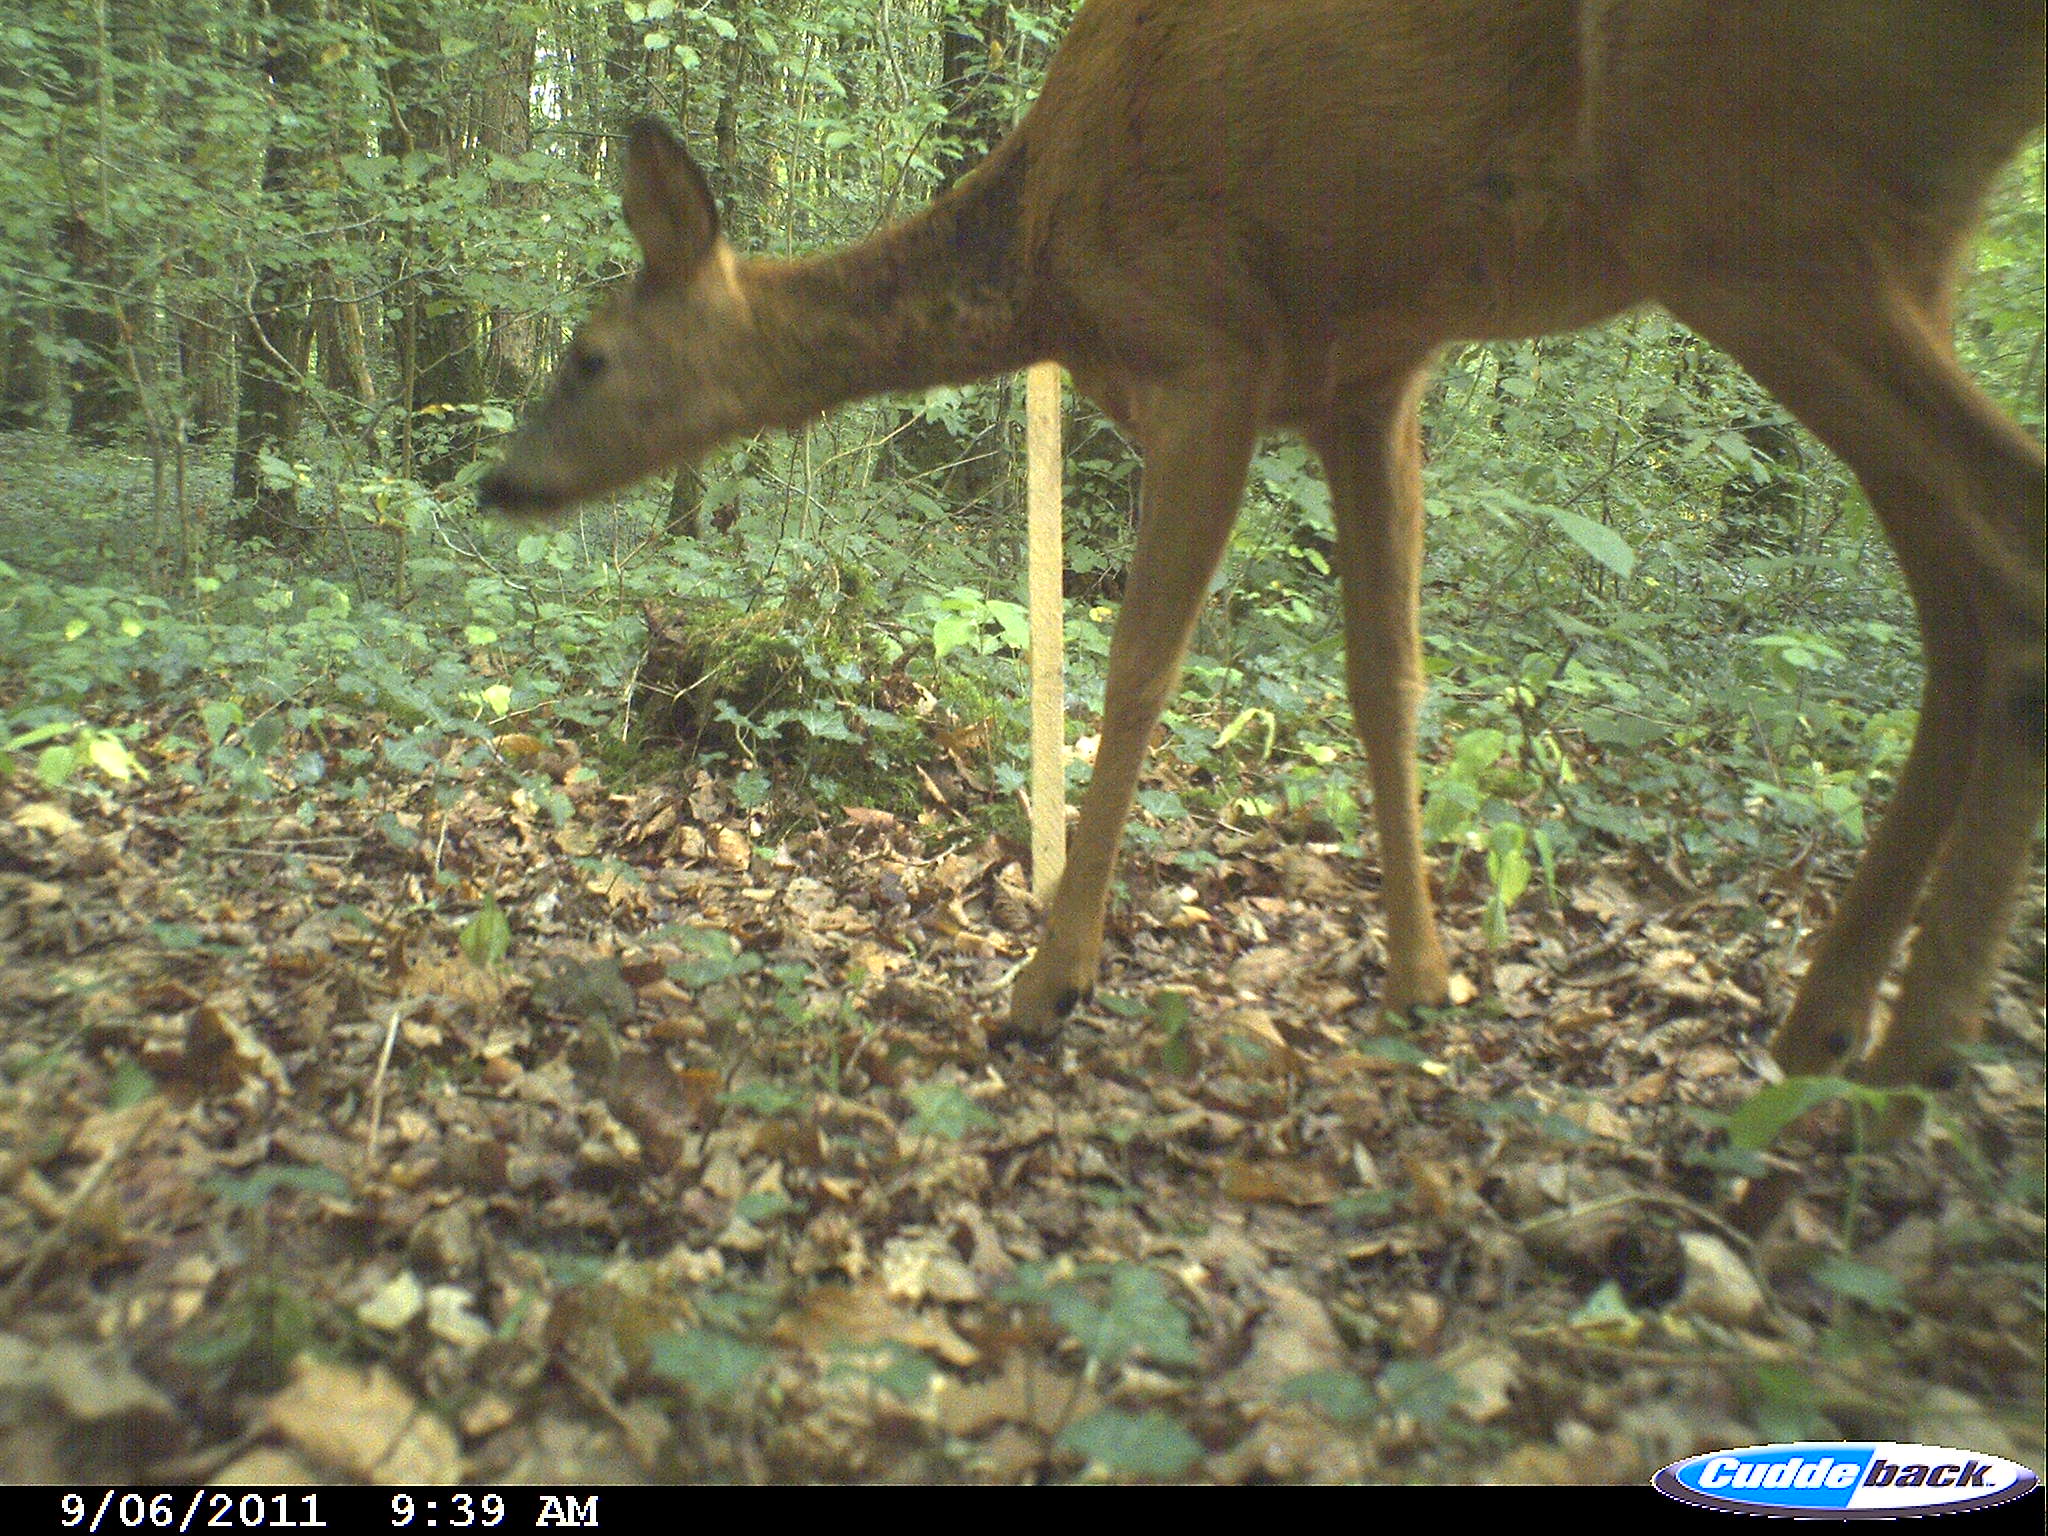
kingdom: Animalia
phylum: Chordata
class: Mammalia
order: Artiodactyla
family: Cervidae
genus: Capreolus
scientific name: Capreolus capreolus
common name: Western roe deer
